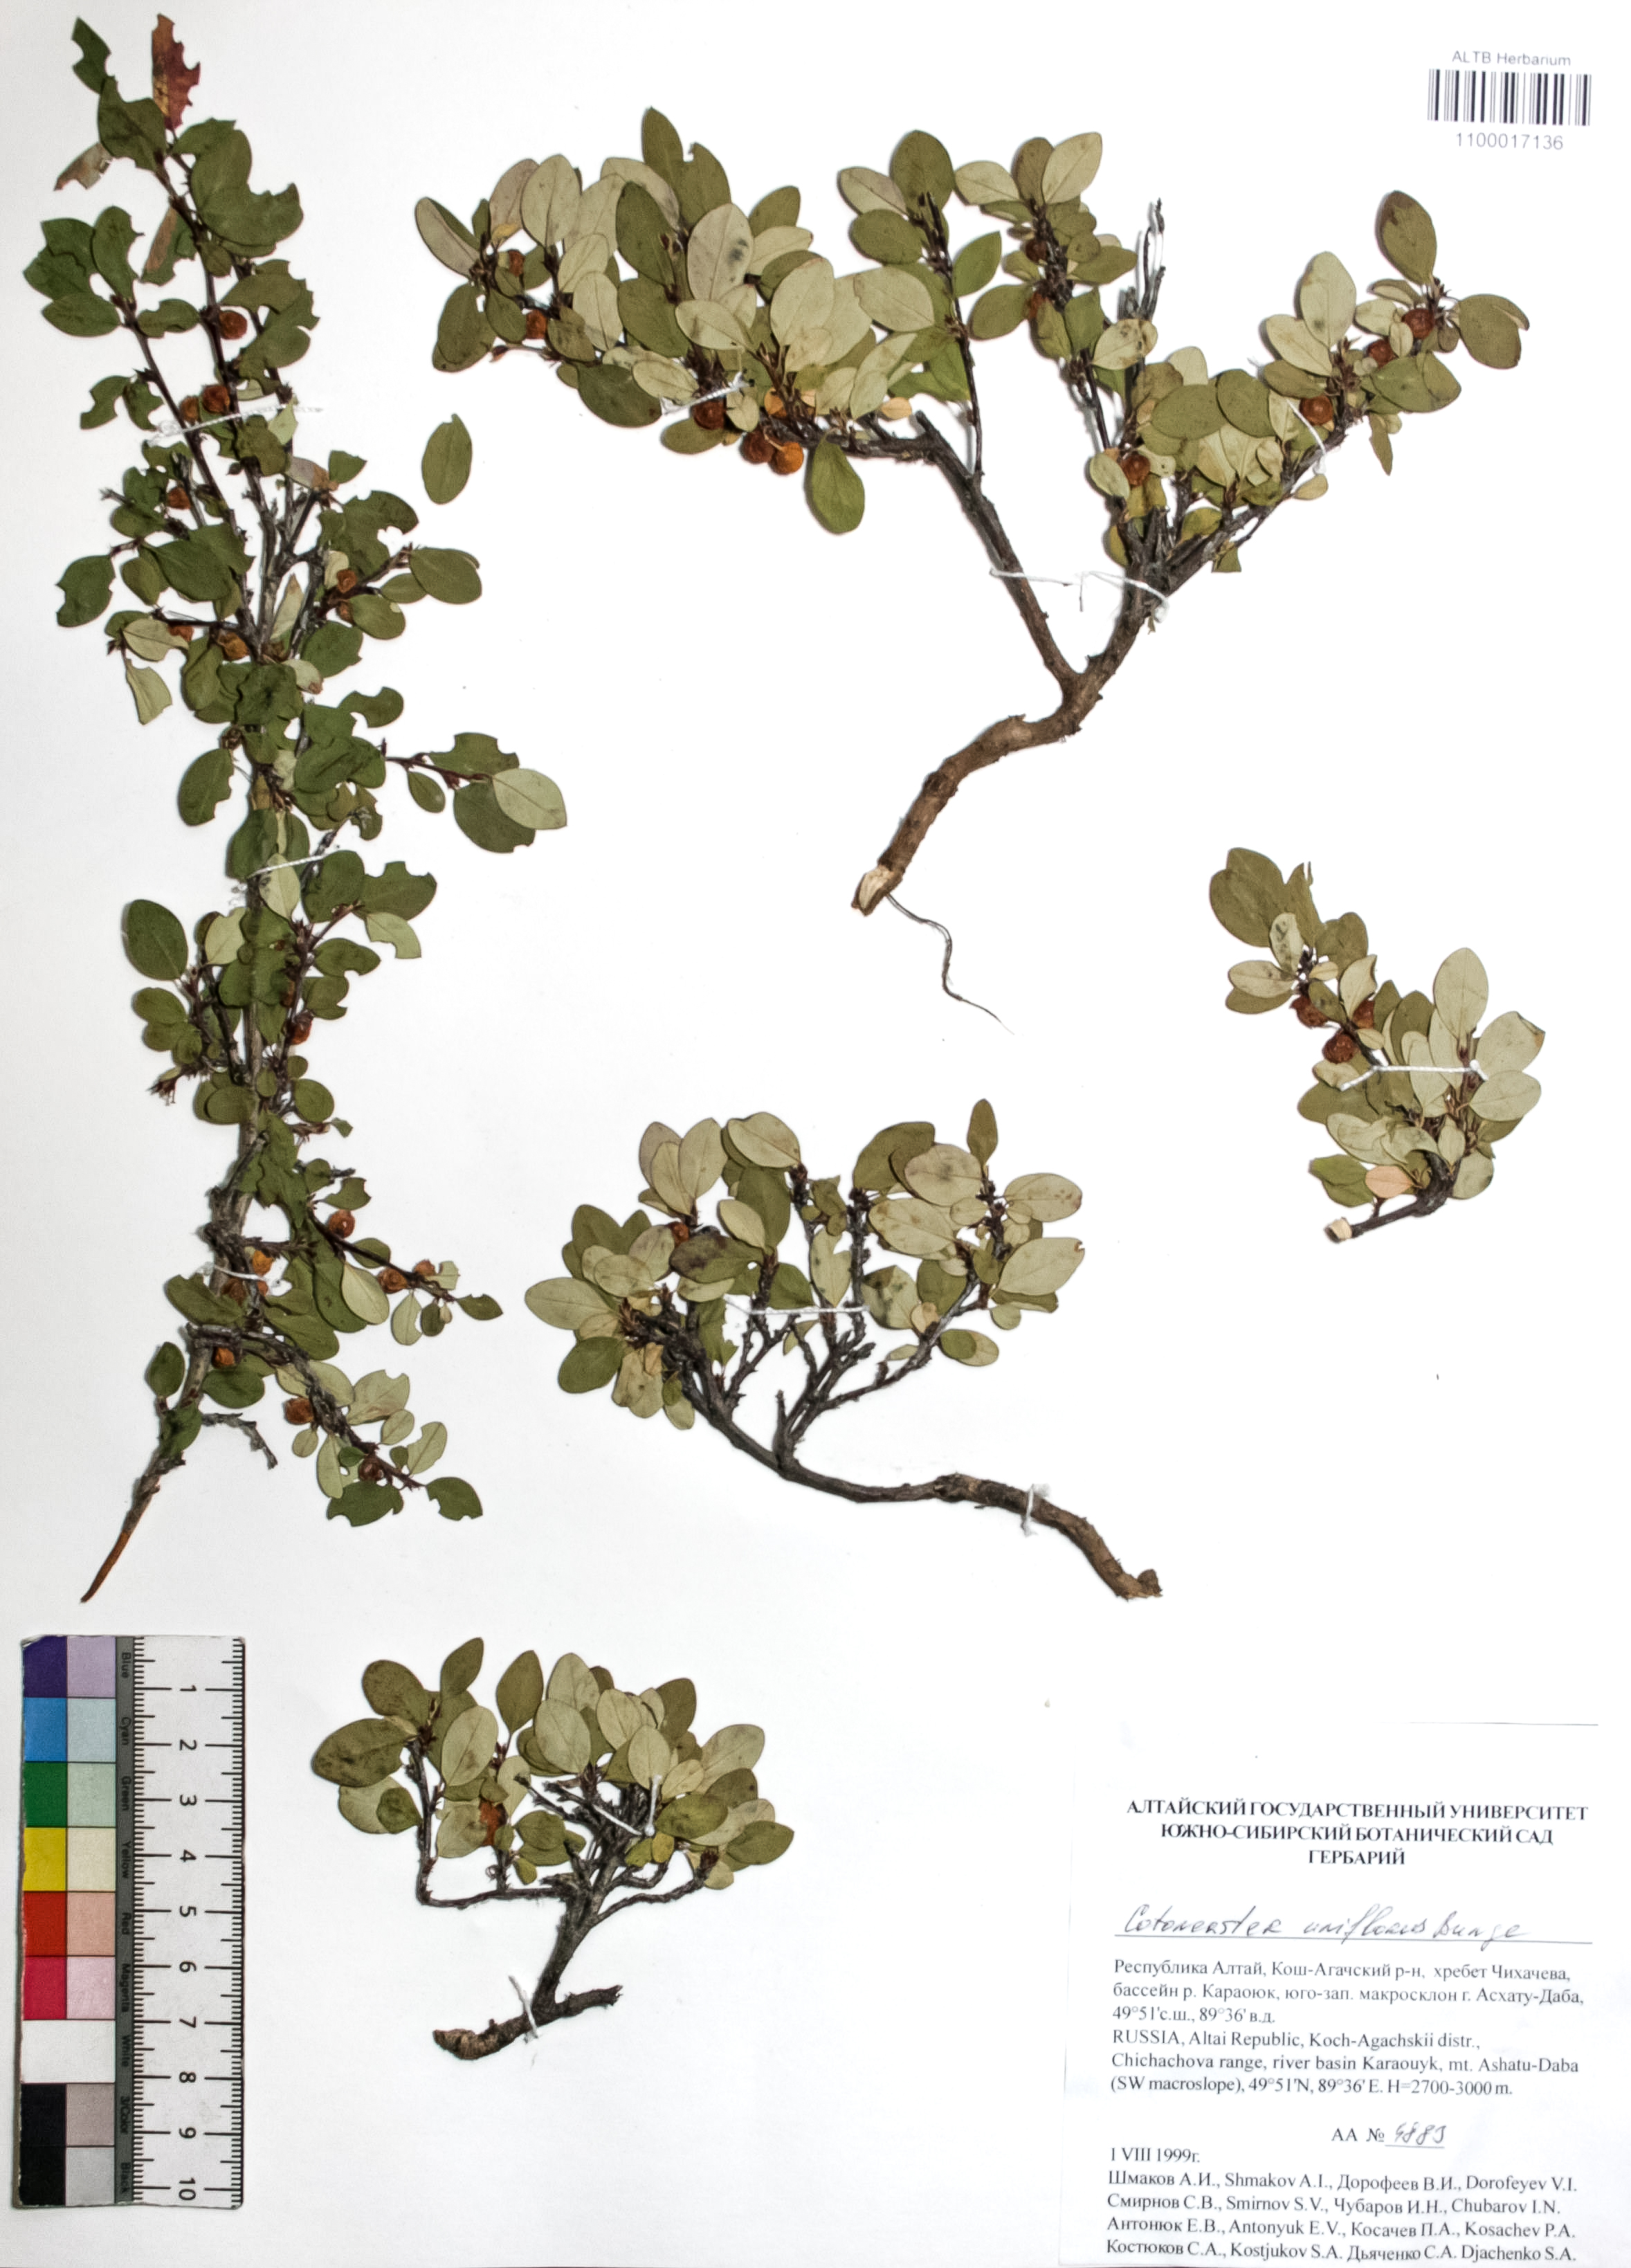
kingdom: Plantae
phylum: Tracheophyta
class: Magnoliopsida
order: Rosales
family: Rosaceae
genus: Cotoneaster
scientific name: Cotoneaster uniflorus
